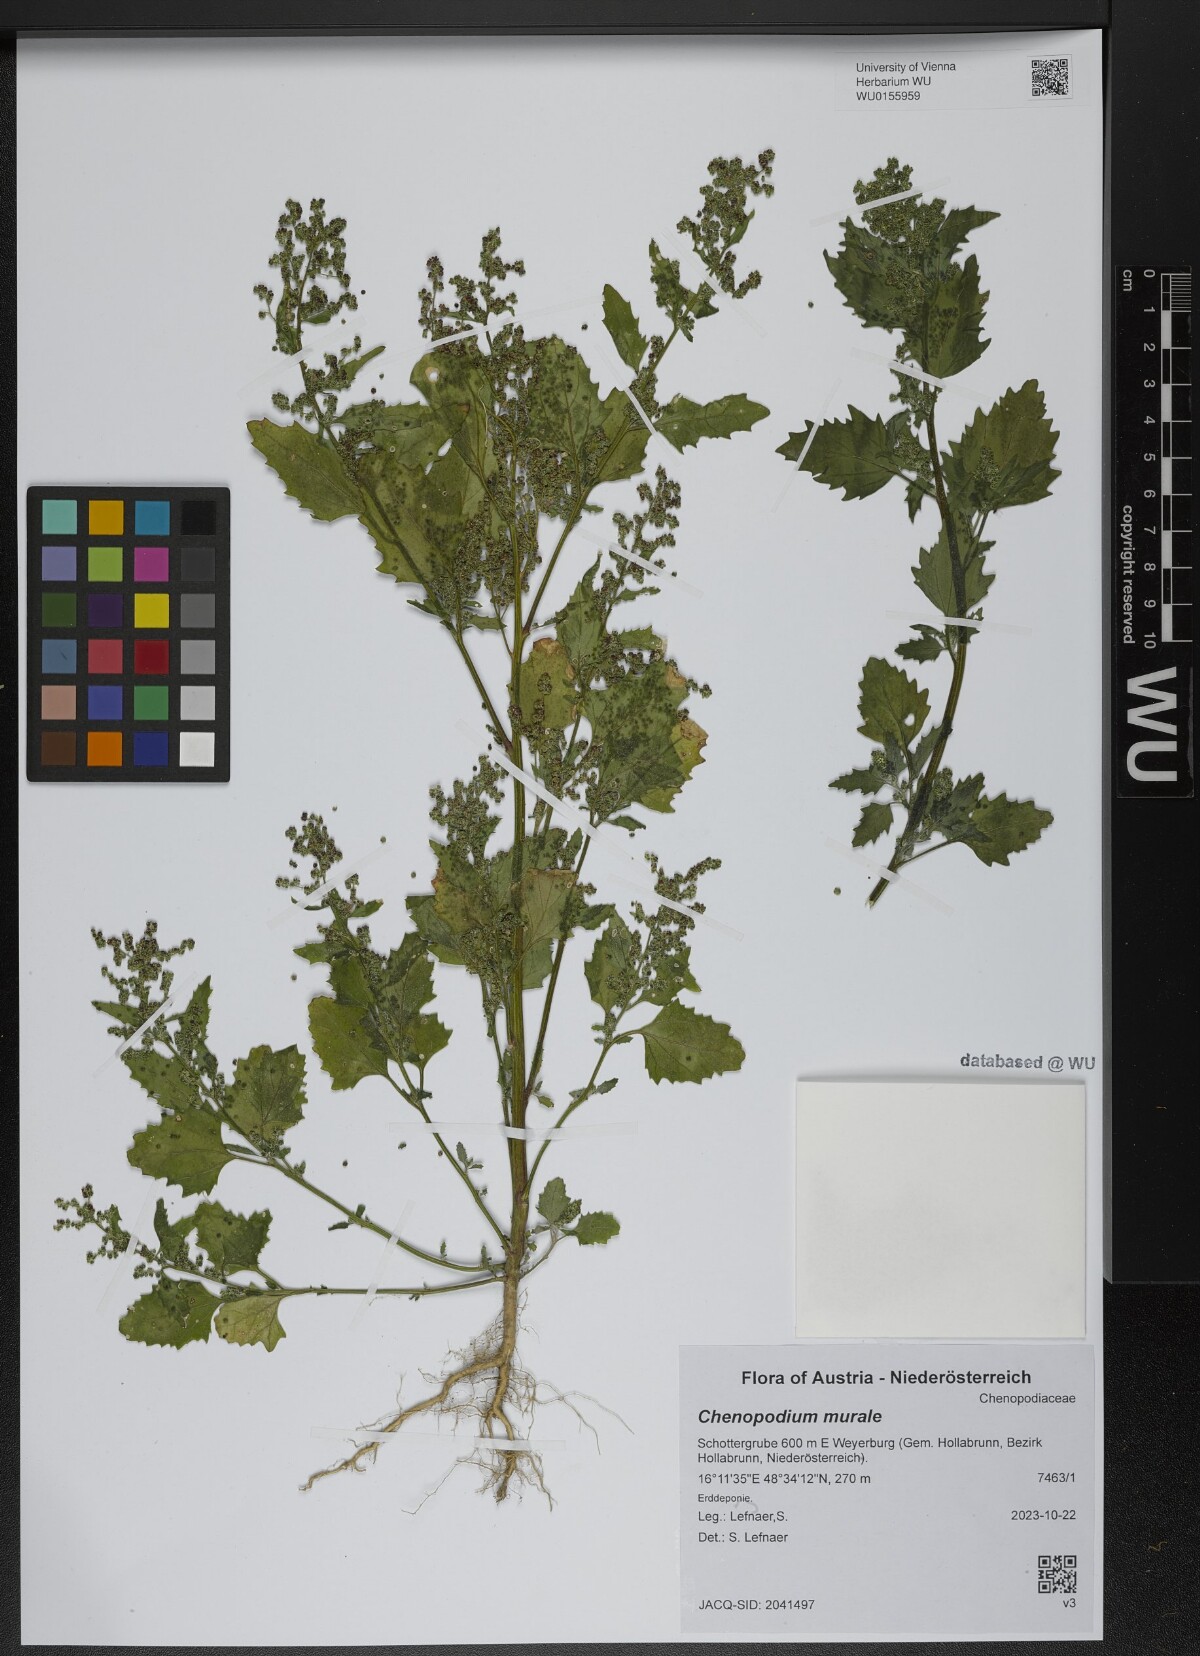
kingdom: Plantae
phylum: Tracheophyta
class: Magnoliopsida
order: Caryophyllales
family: Amaranthaceae
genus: Chenopodiastrum
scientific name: Chenopodiastrum murale
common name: Sowbane
